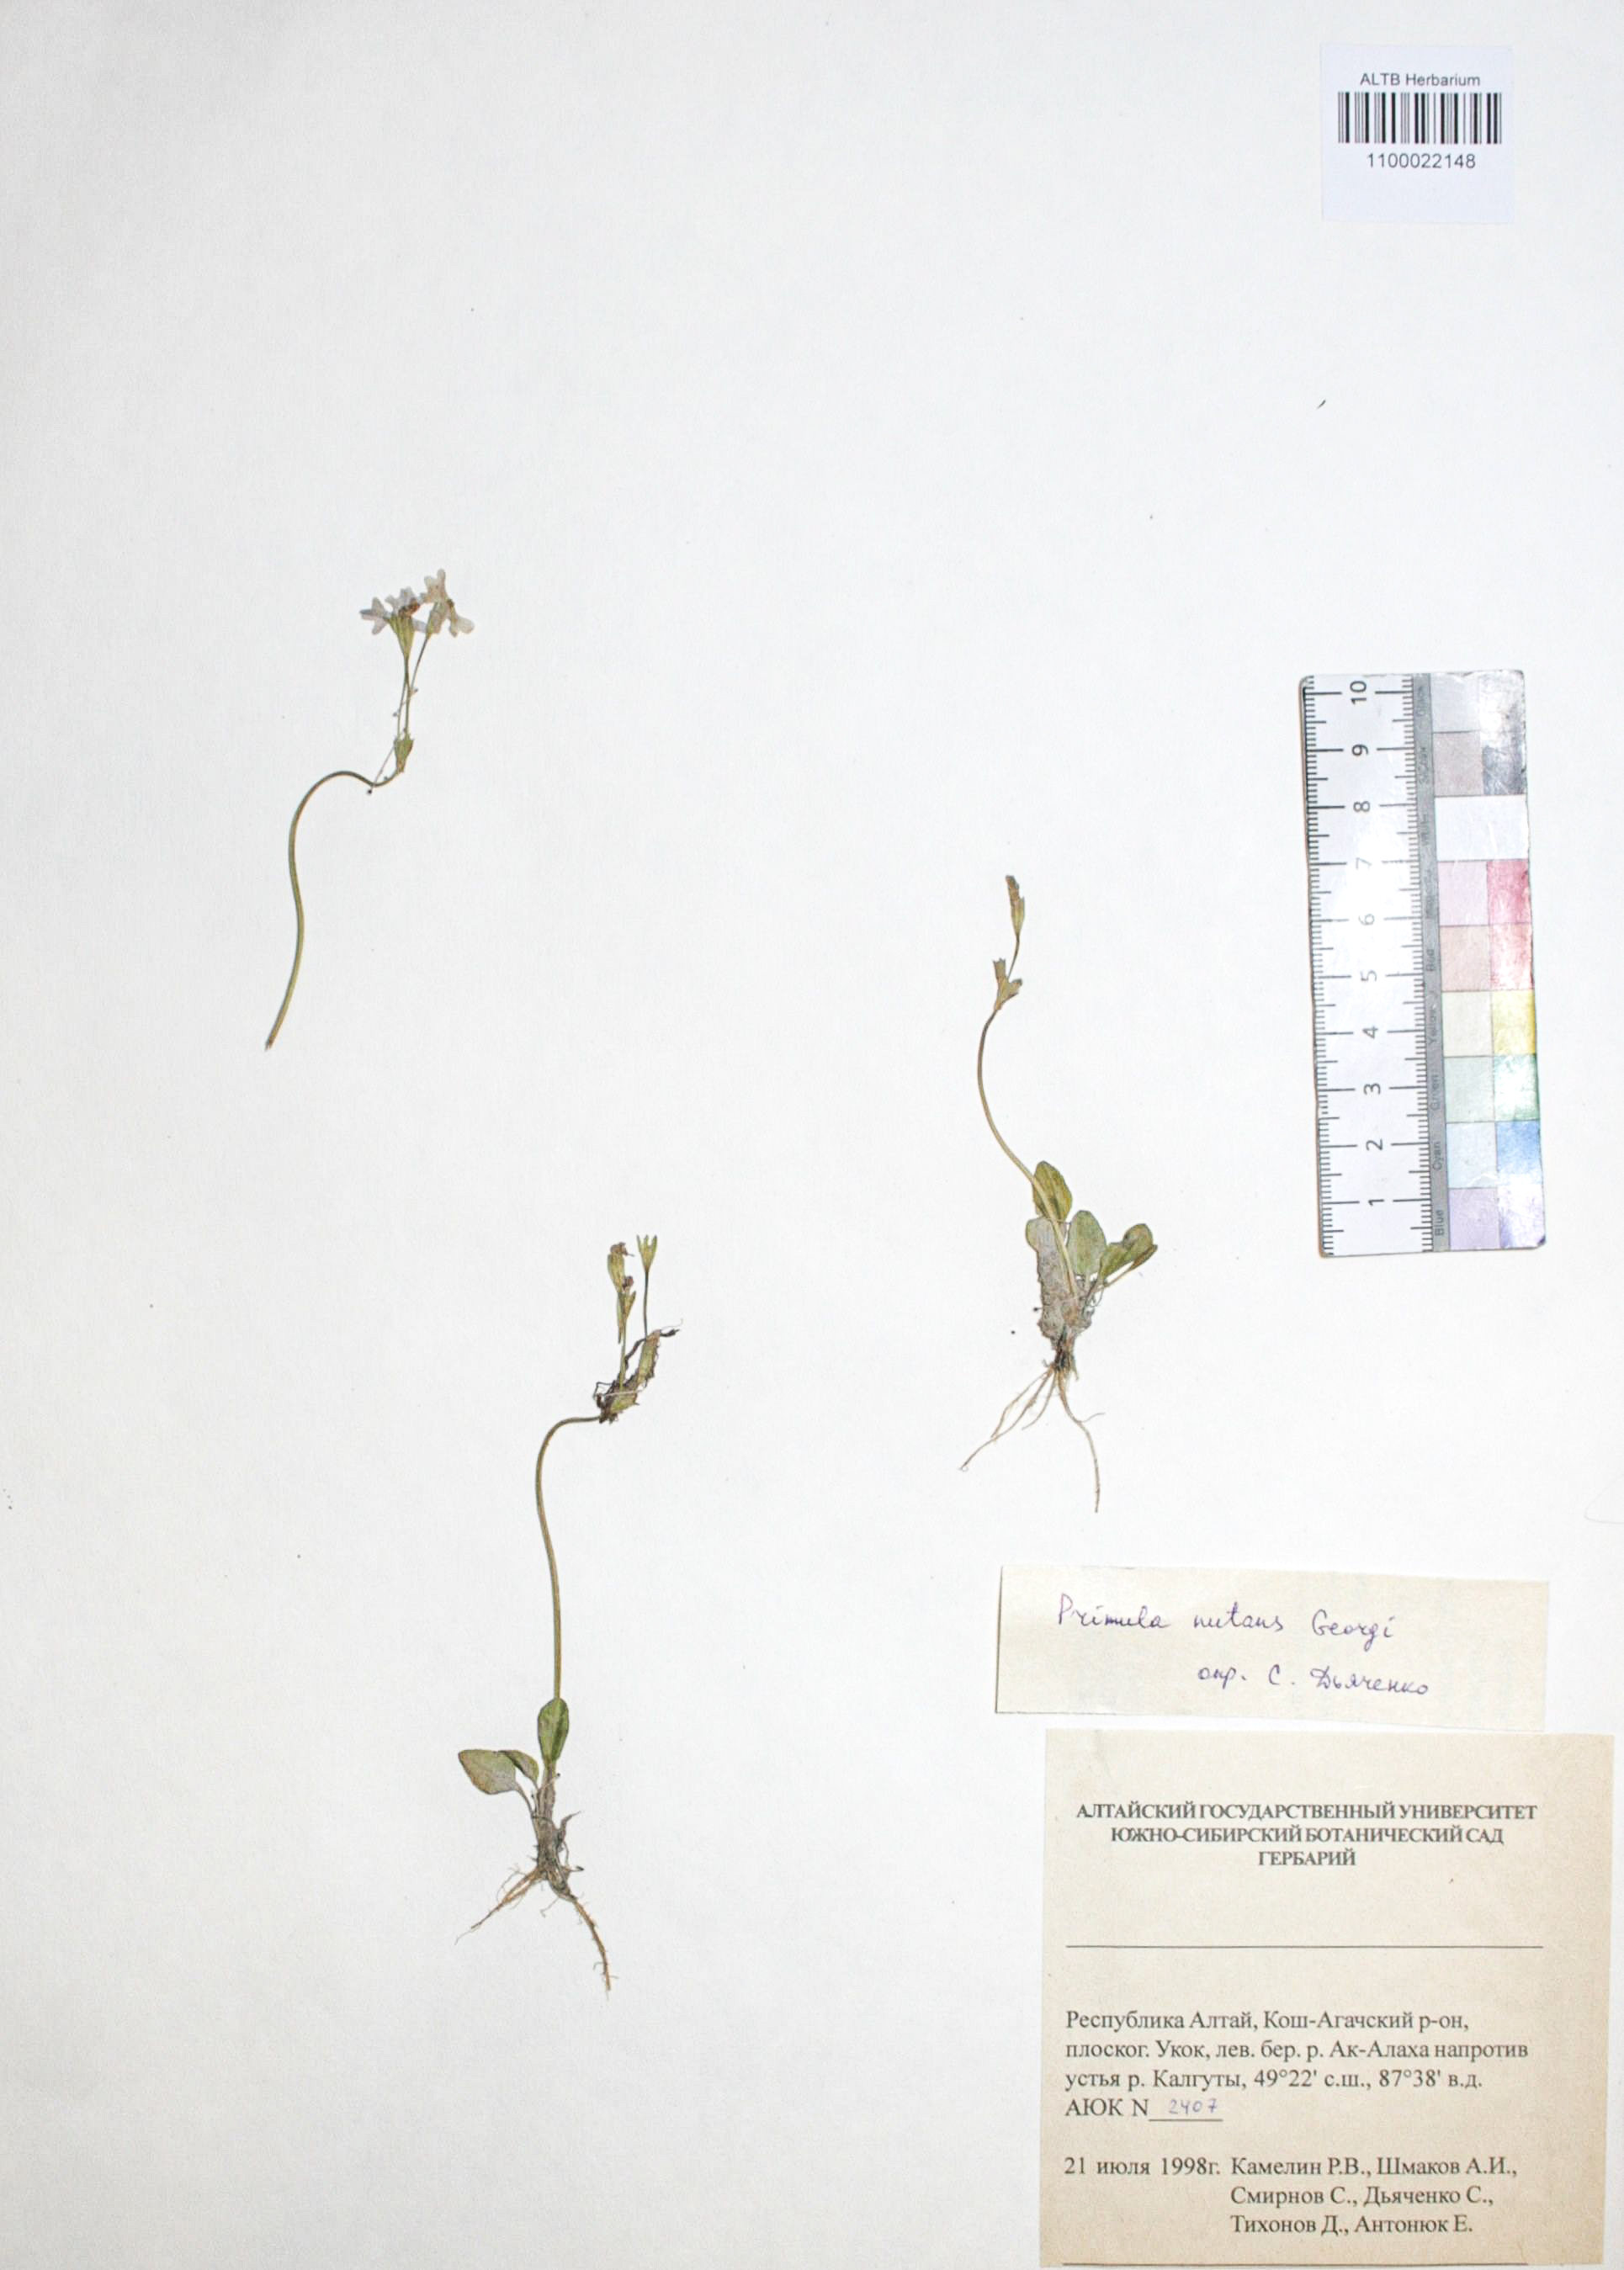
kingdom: Plantae
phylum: Tracheophyta
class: Magnoliopsida
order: Ericales
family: Primulaceae
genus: Primula
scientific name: Primula nutans
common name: Siberian primrose
